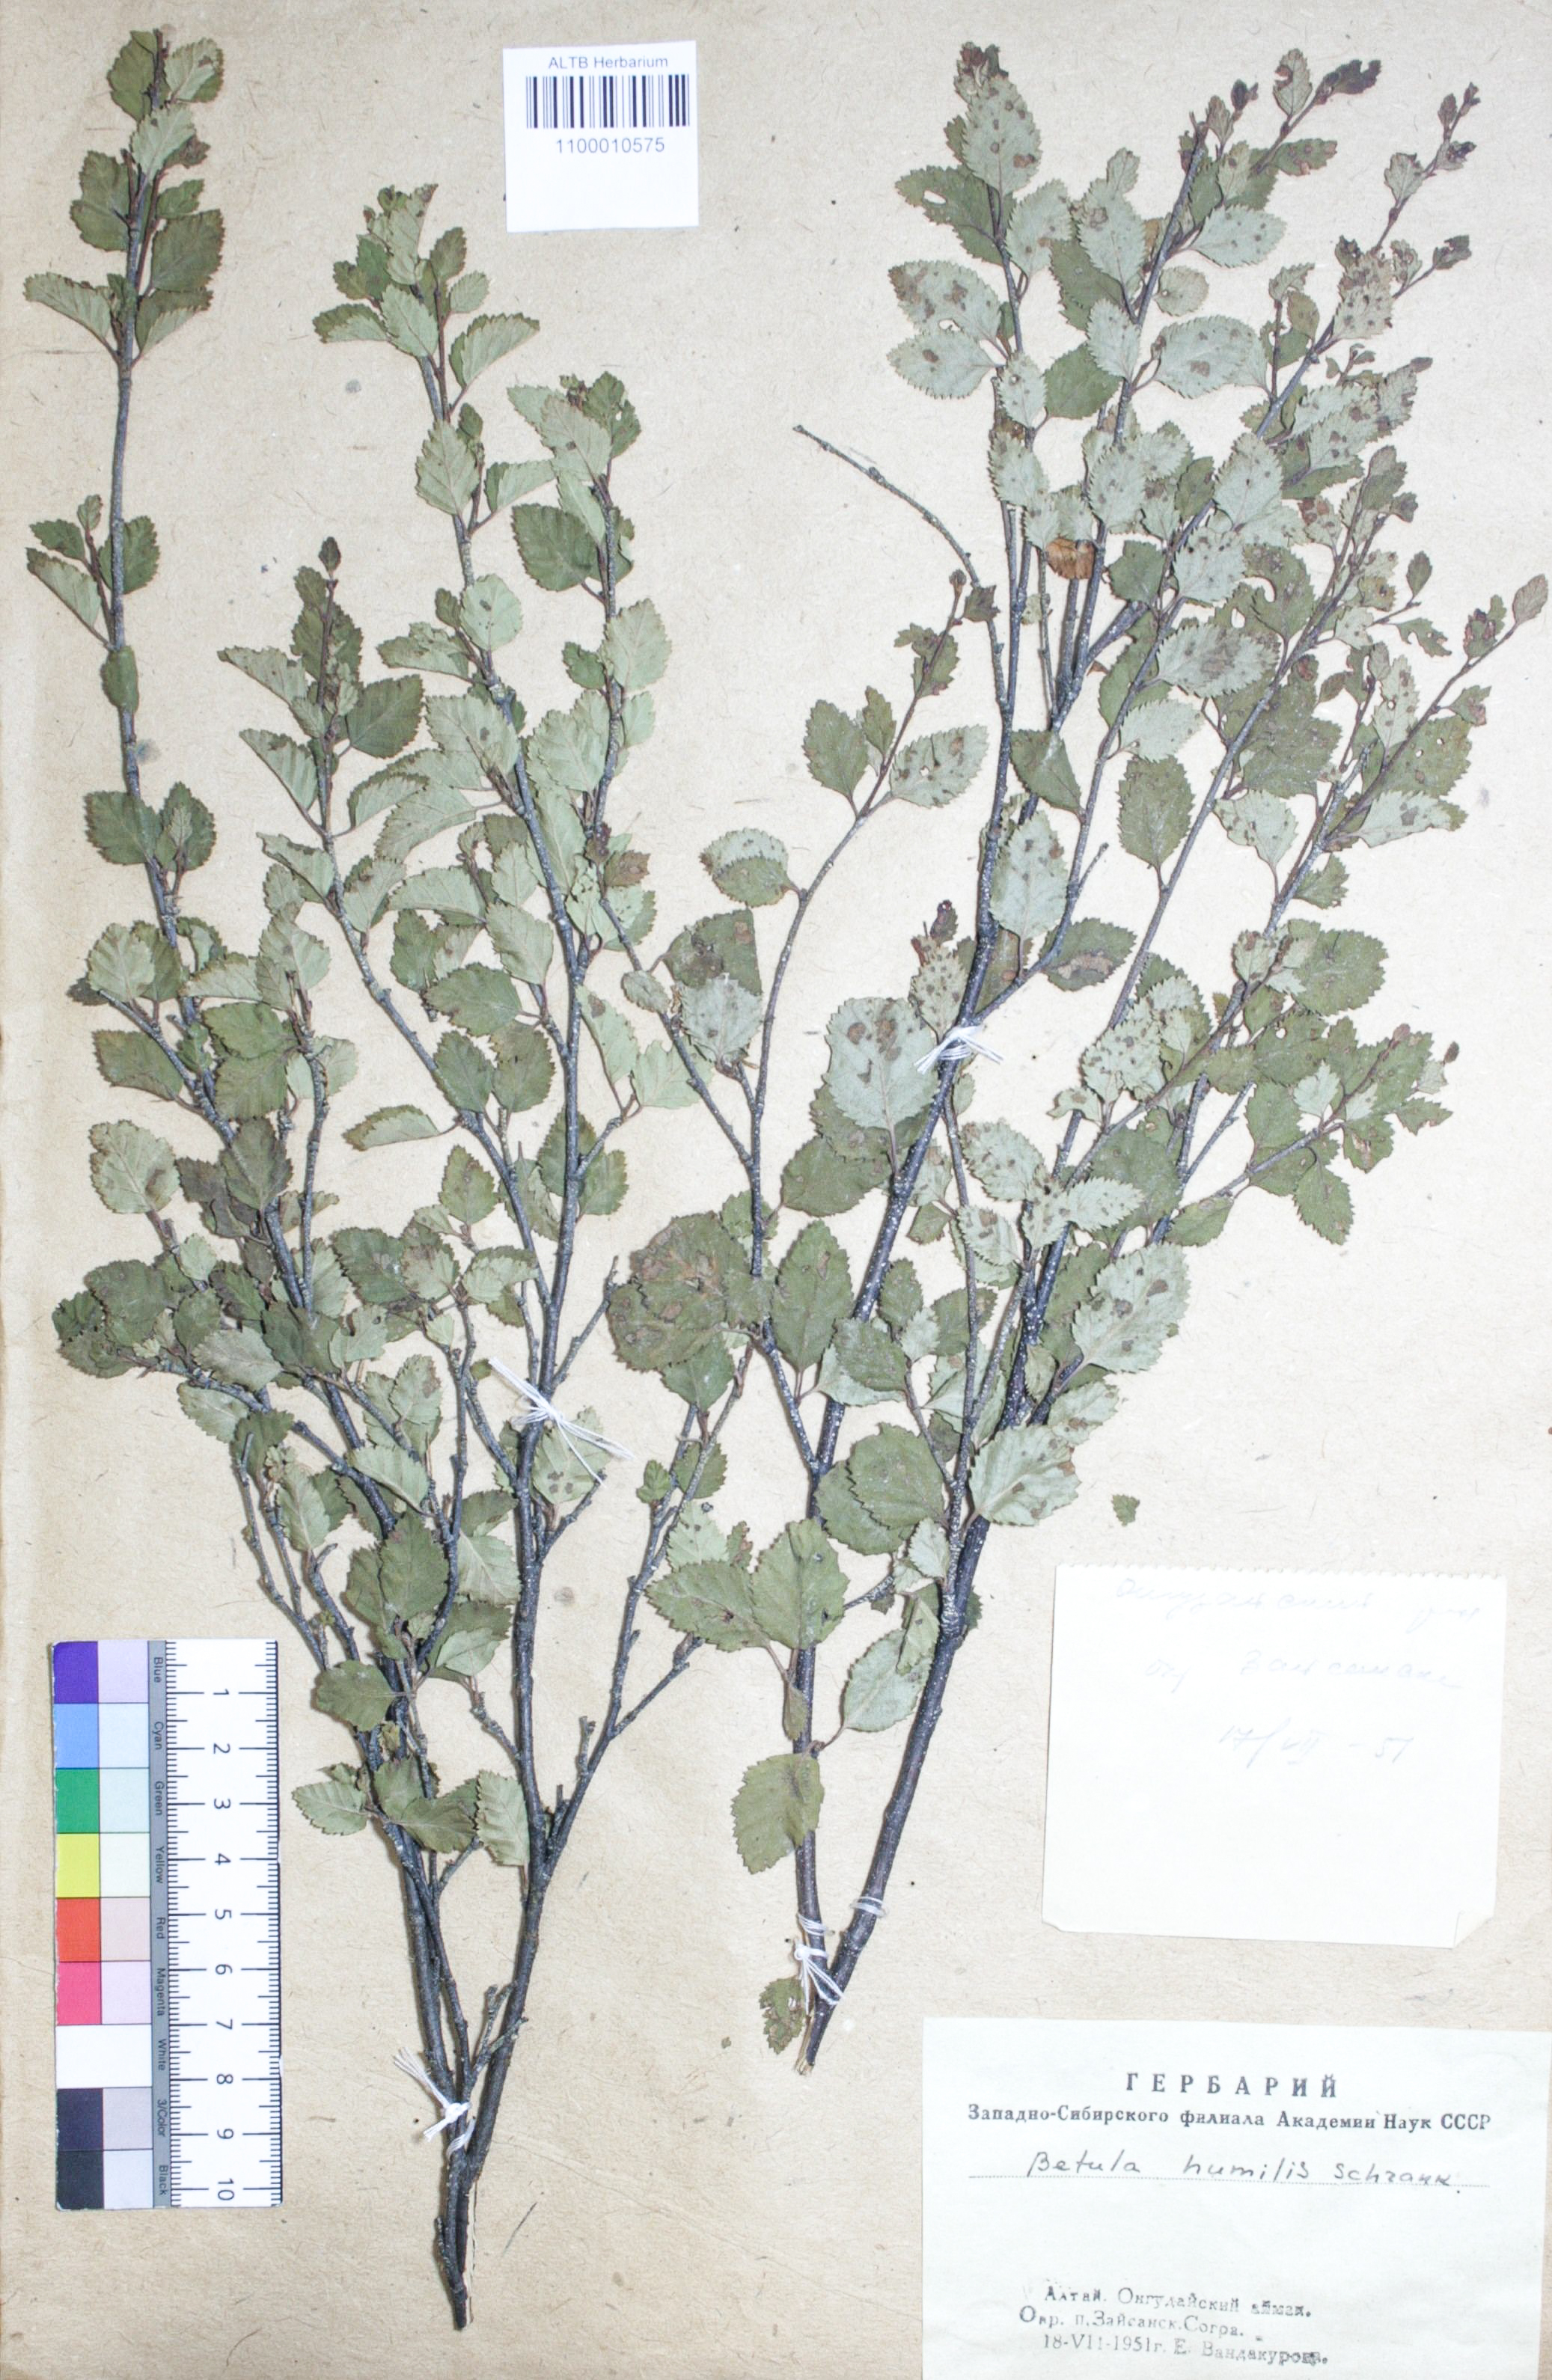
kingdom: Plantae
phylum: Tracheophyta
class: Magnoliopsida
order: Fagales
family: Betulaceae
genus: Betula
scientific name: Betula humilis
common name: Shrubby birch
